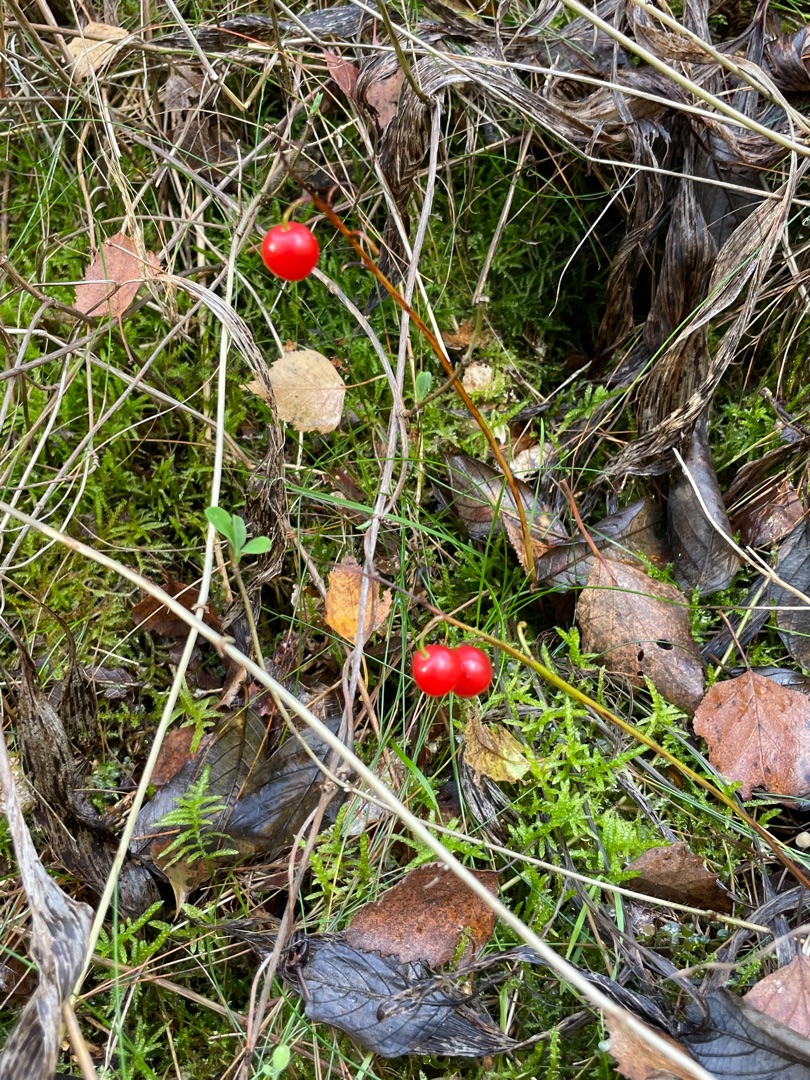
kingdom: Plantae
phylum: Tracheophyta
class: Liliopsida
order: Asparagales
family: Asparagaceae
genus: Convallaria
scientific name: Convallaria majalis
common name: Liljekonval
